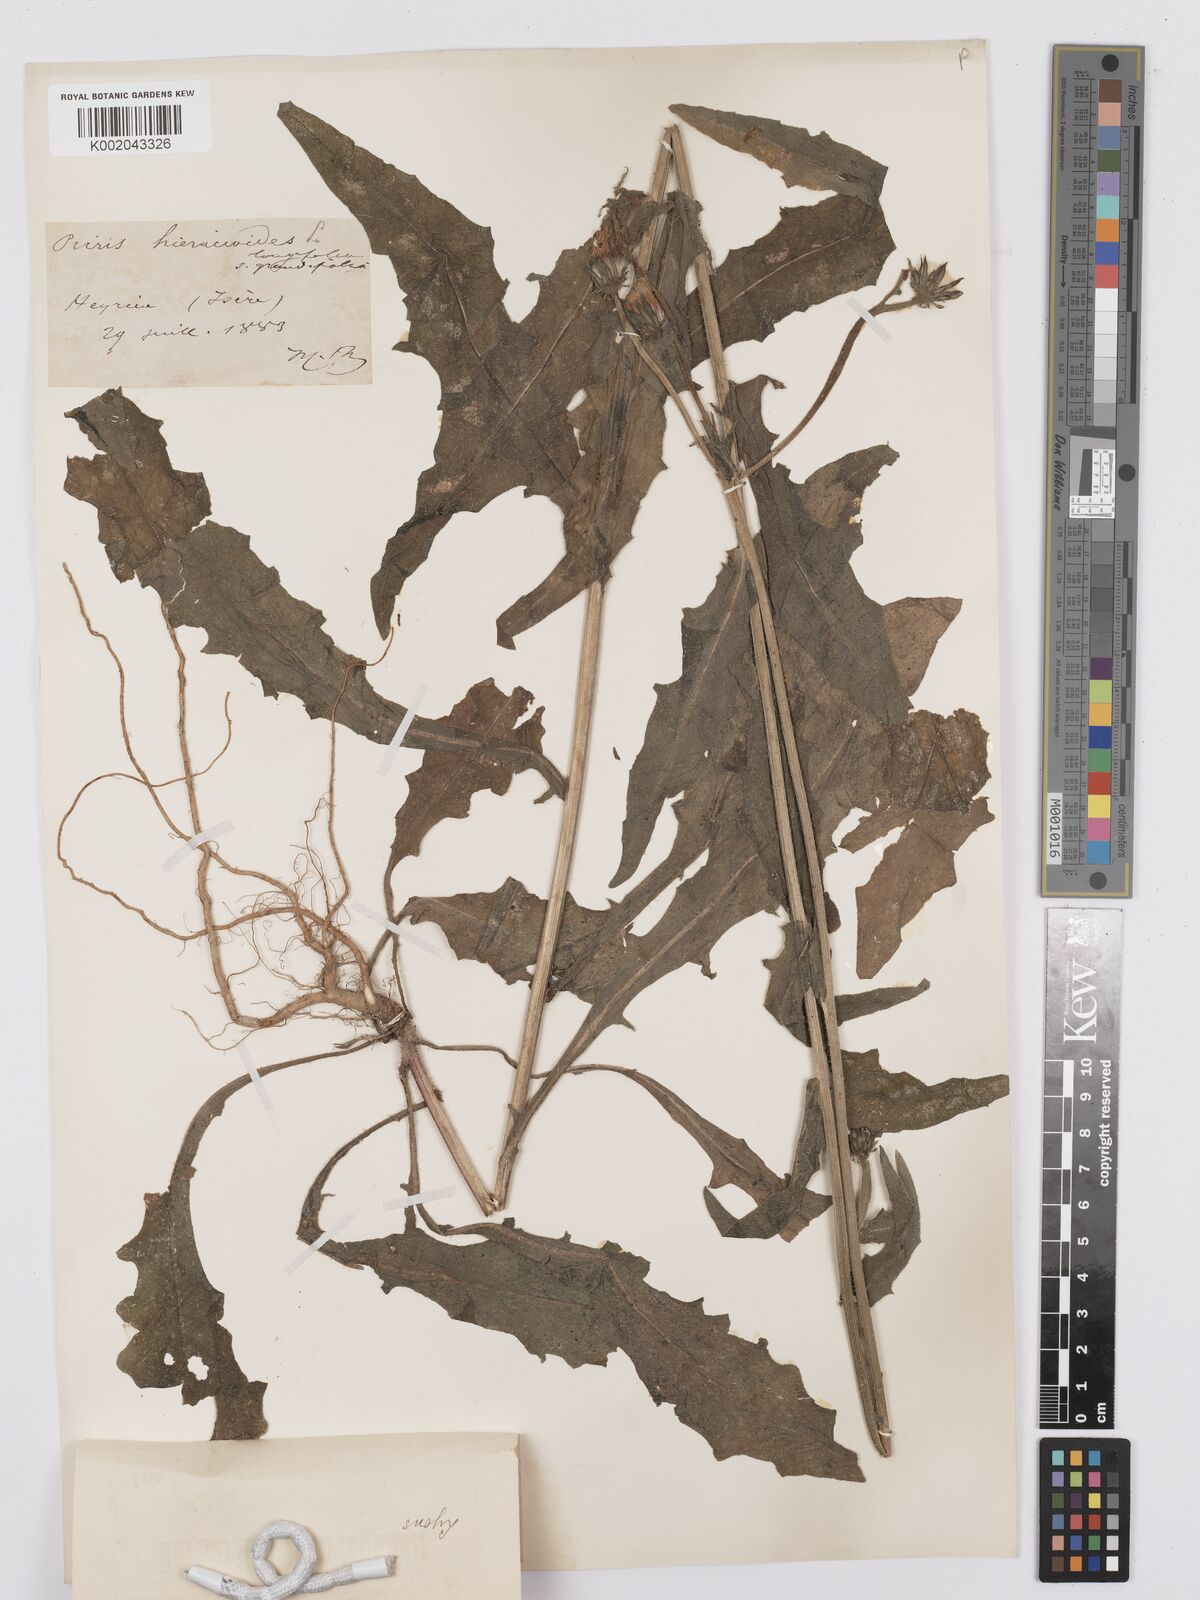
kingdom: Plantae
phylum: Tracheophyta
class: Magnoliopsida
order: Asterales
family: Asteraceae
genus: Picris
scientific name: Picris hieracioides
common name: Hawkweed oxtongue
